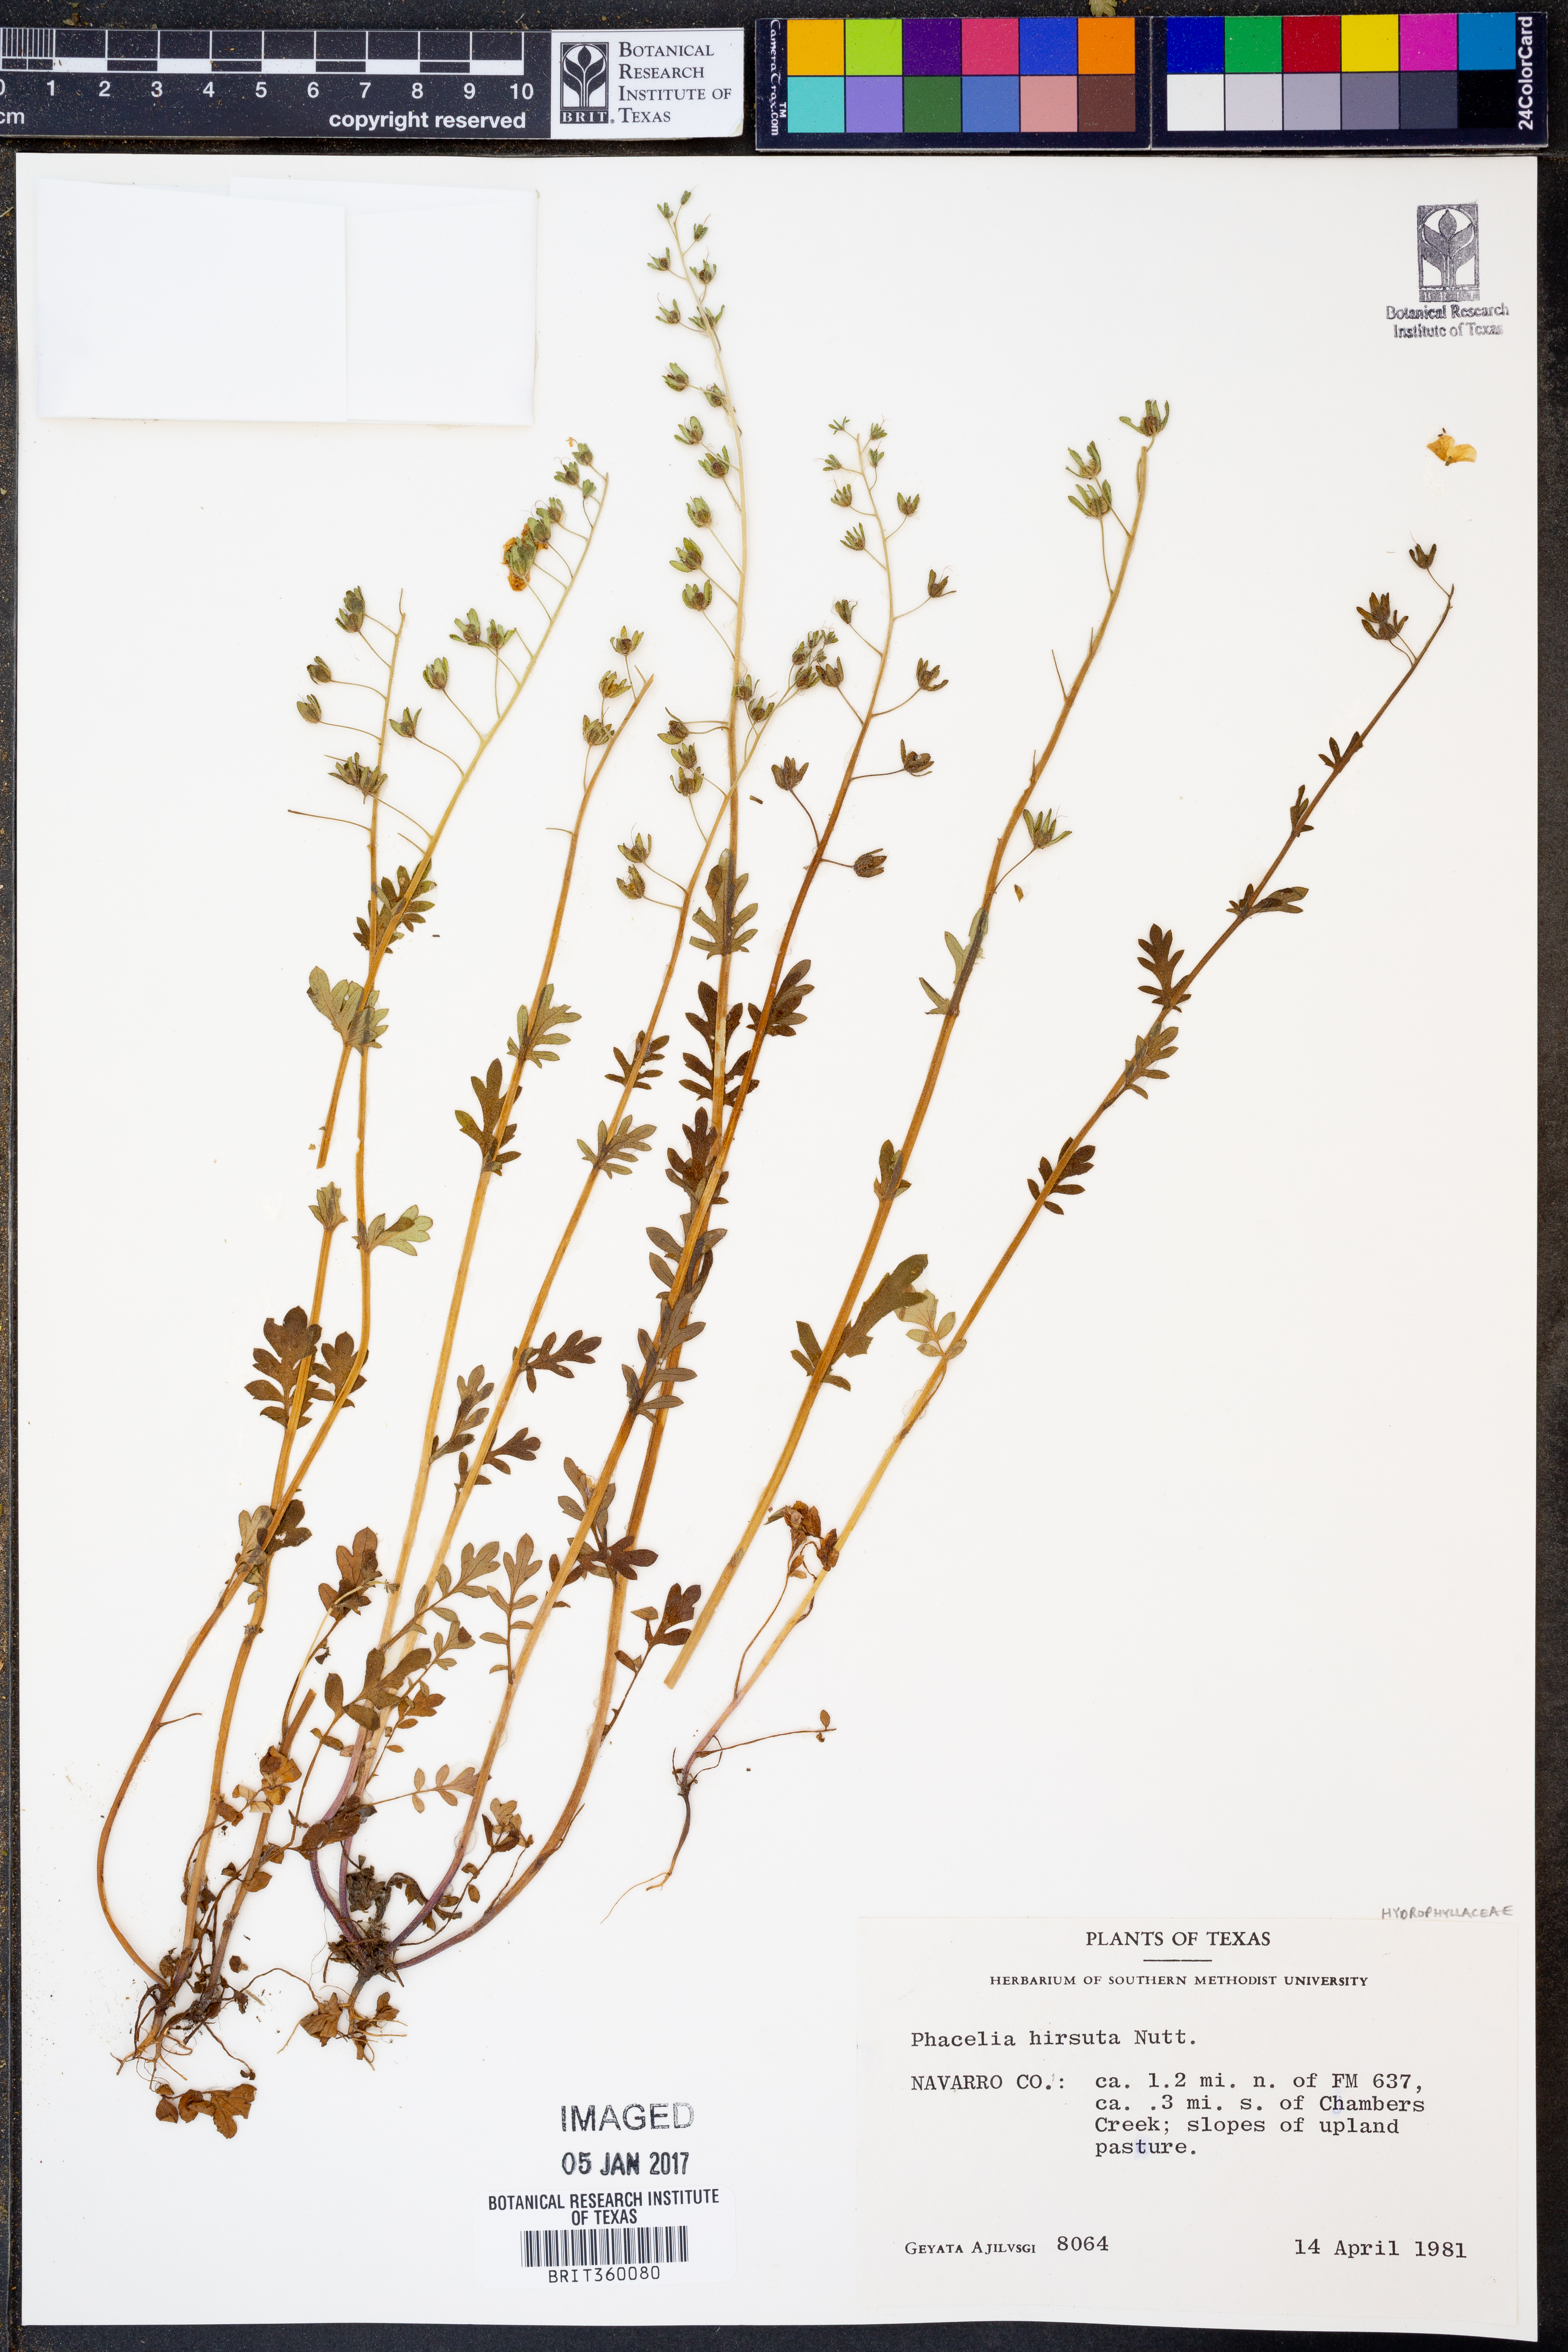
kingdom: Plantae
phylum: Tracheophyta
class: Magnoliopsida
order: Boraginales
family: Hydrophyllaceae
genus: Phacelia
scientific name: Phacelia hirsuta
